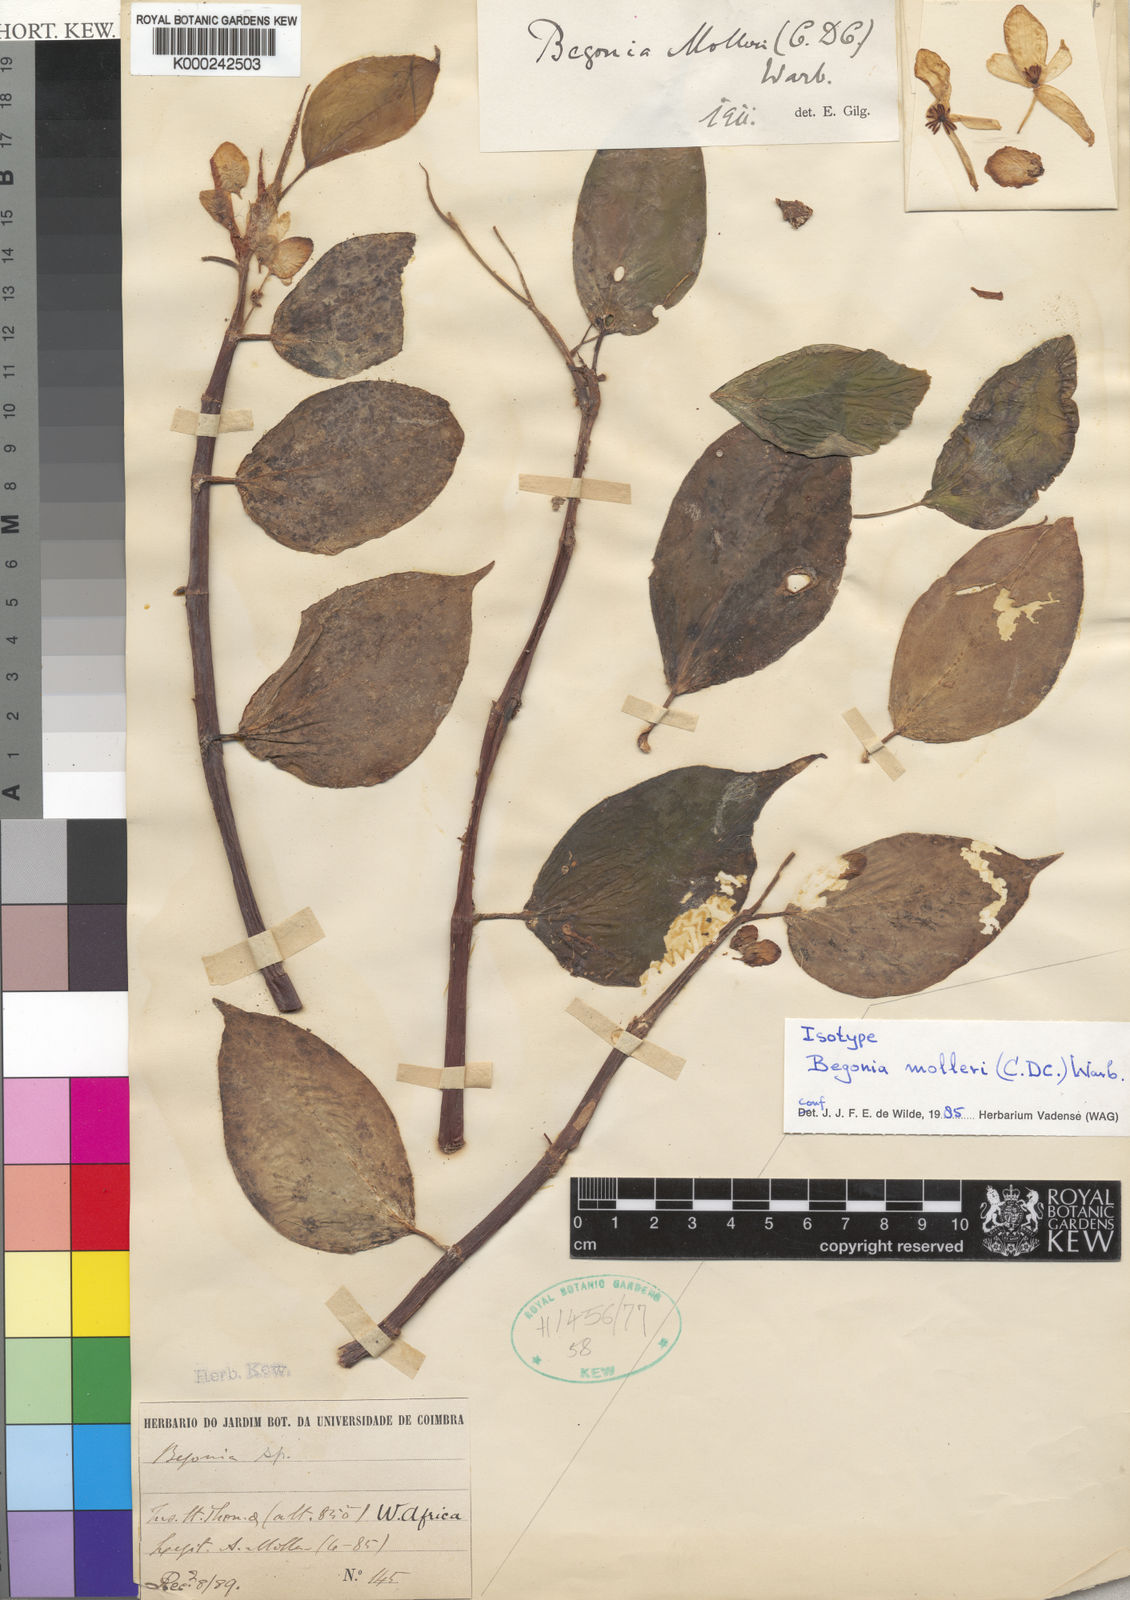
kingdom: Plantae
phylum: Tracheophyta
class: Magnoliopsida
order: Cucurbitales
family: Begoniaceae
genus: Begonia
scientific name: Begonia molleri
